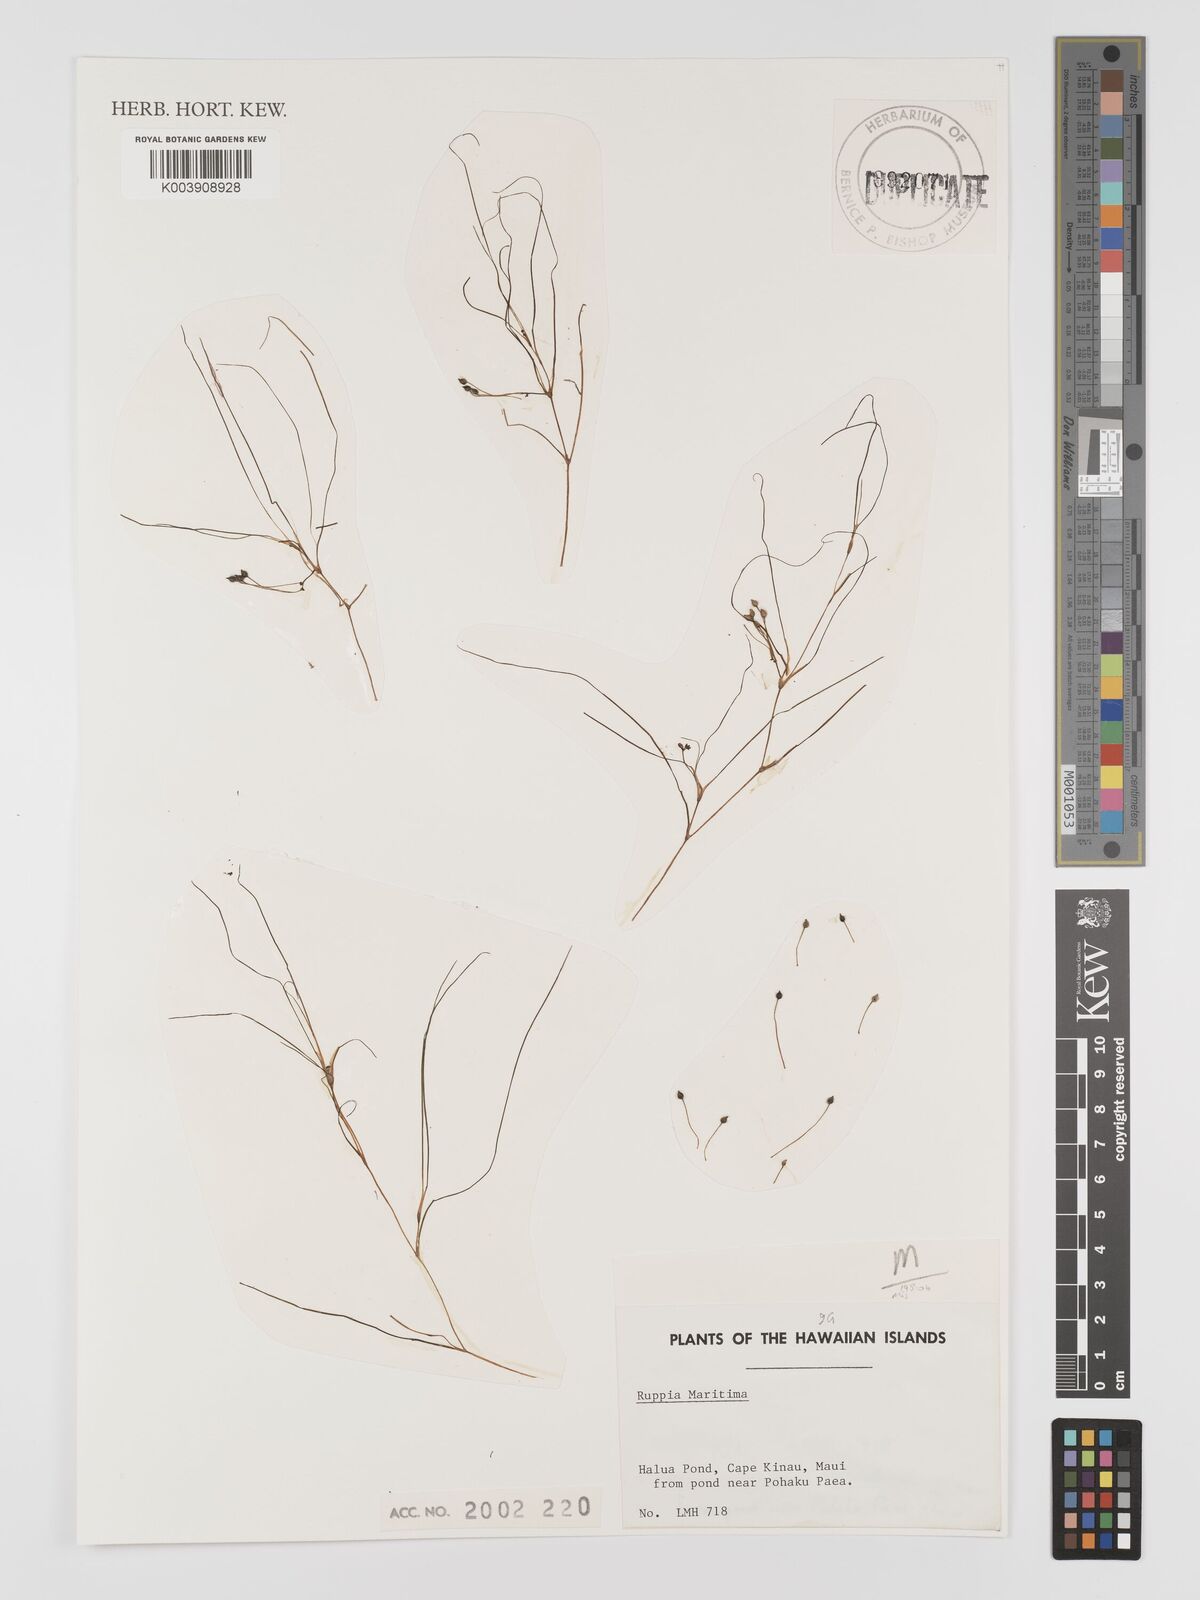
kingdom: Plantae
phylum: Tracheophyta
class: Liliopsida
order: Alismatales
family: Ruppiaceae
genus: Ruppia
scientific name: Ruppia maritima
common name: Beaked tasselweed
